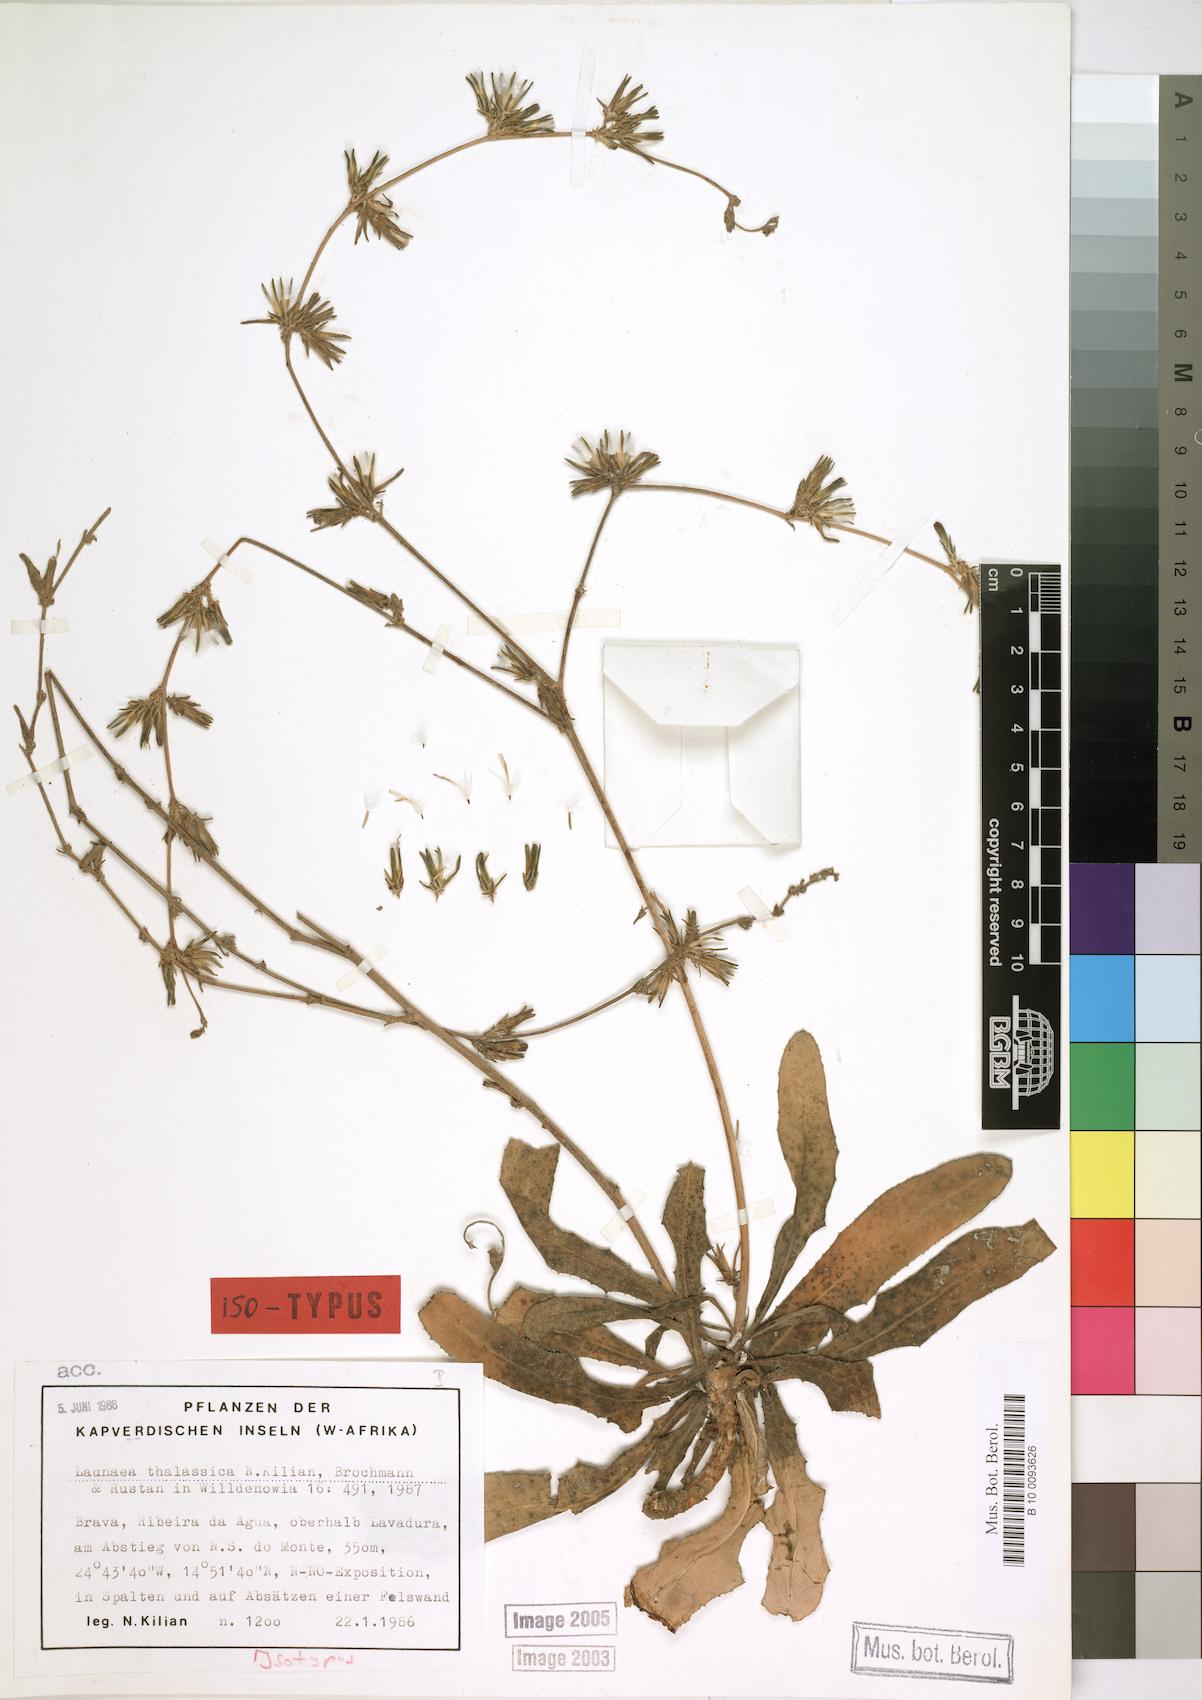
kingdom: Plantae
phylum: Tracheophyta
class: Magnoliopsida
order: Asterales
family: Asteraceae
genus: Launaea
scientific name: Launaea thalassica
